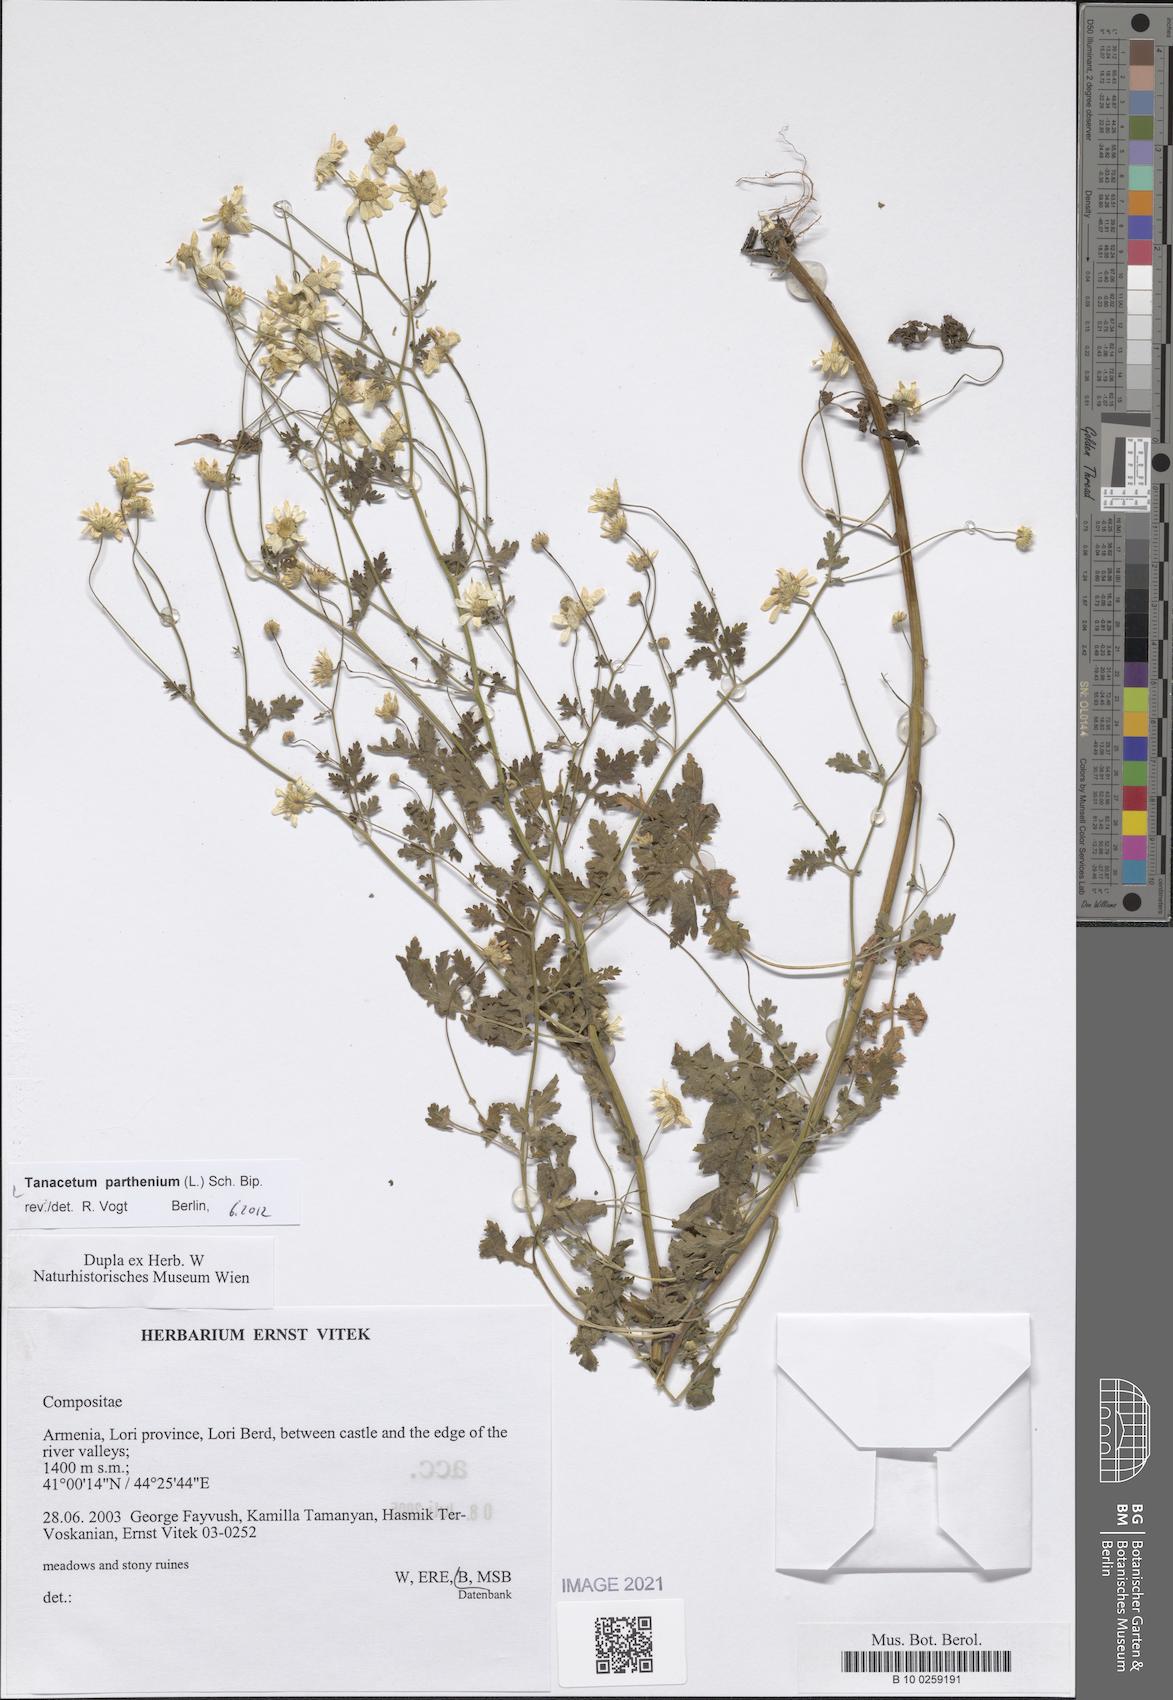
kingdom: Plantae
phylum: Tracheophyta
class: Magnoliopsida
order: Asterales
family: Asteraceae
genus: Tanacetum
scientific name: Tanacetum parthenium
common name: Feverfew
